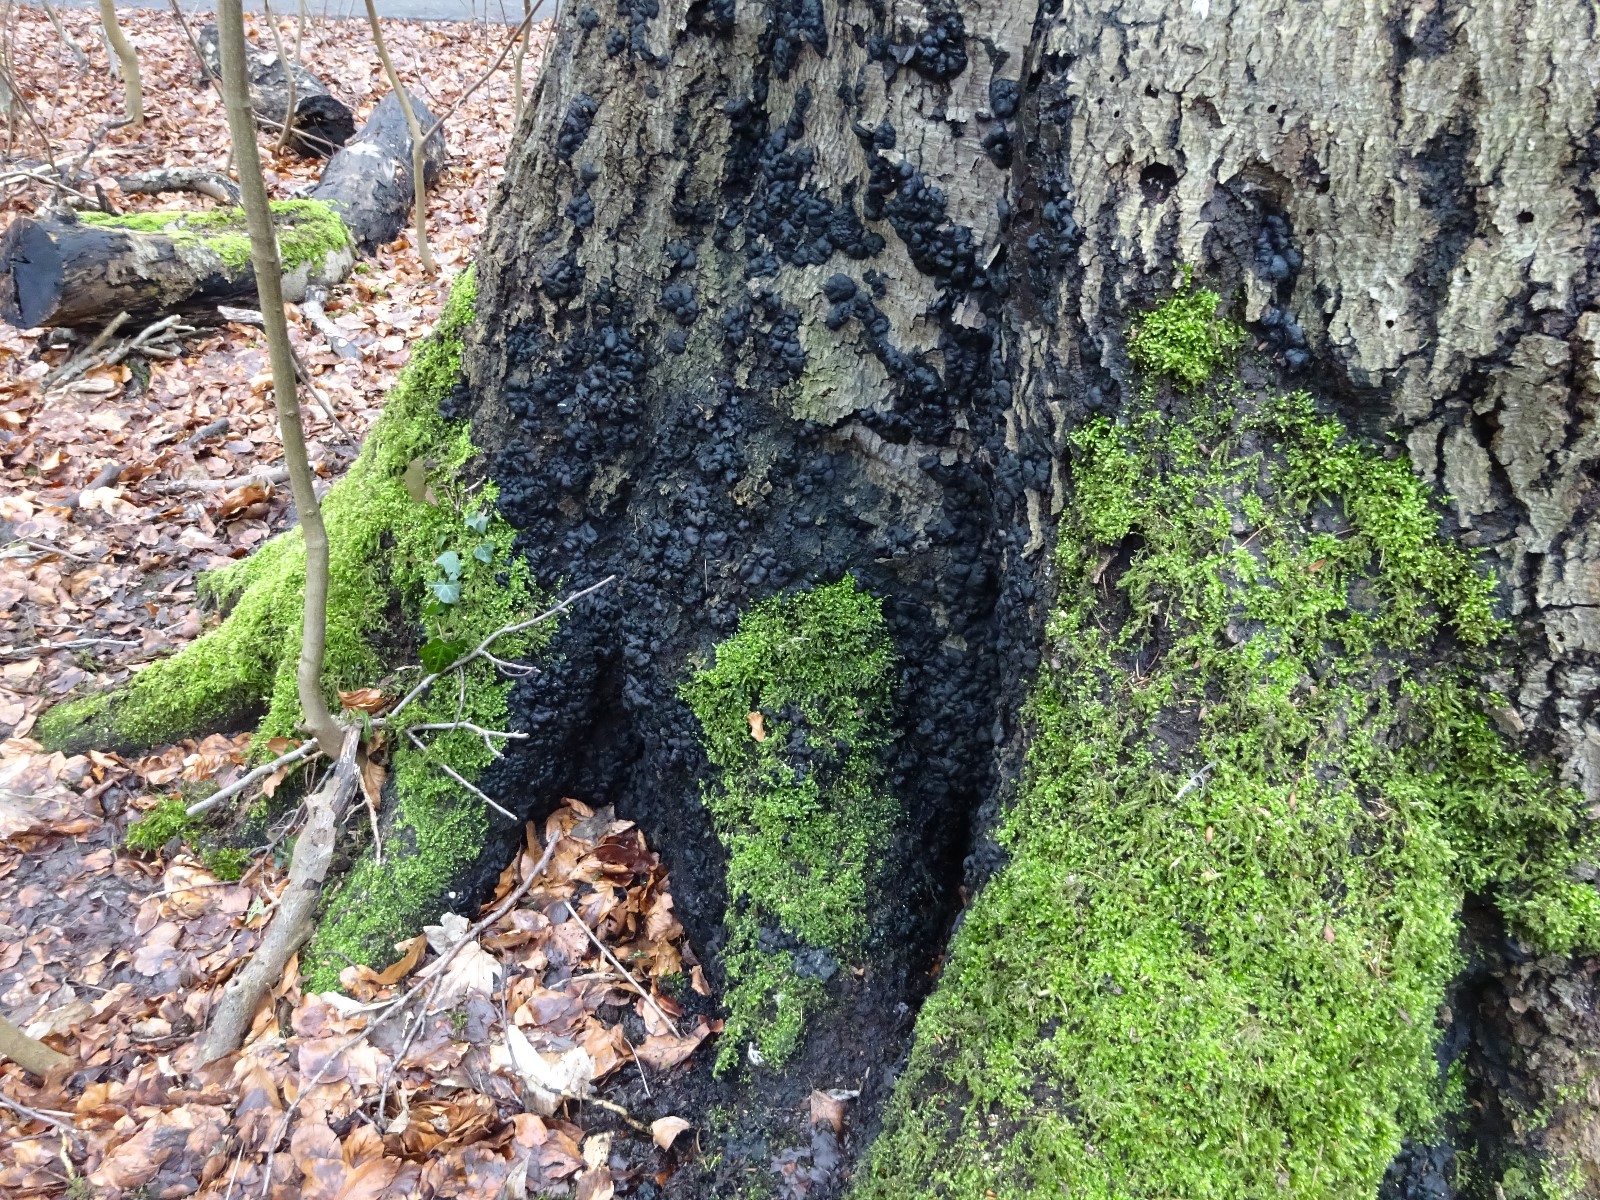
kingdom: Fungi
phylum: Ascomycota
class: Sordariomycetes
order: Xylariales
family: Xylariaceae
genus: Kretzschmaria
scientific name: Kretzschmaria deusta
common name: stor kulsvamp
